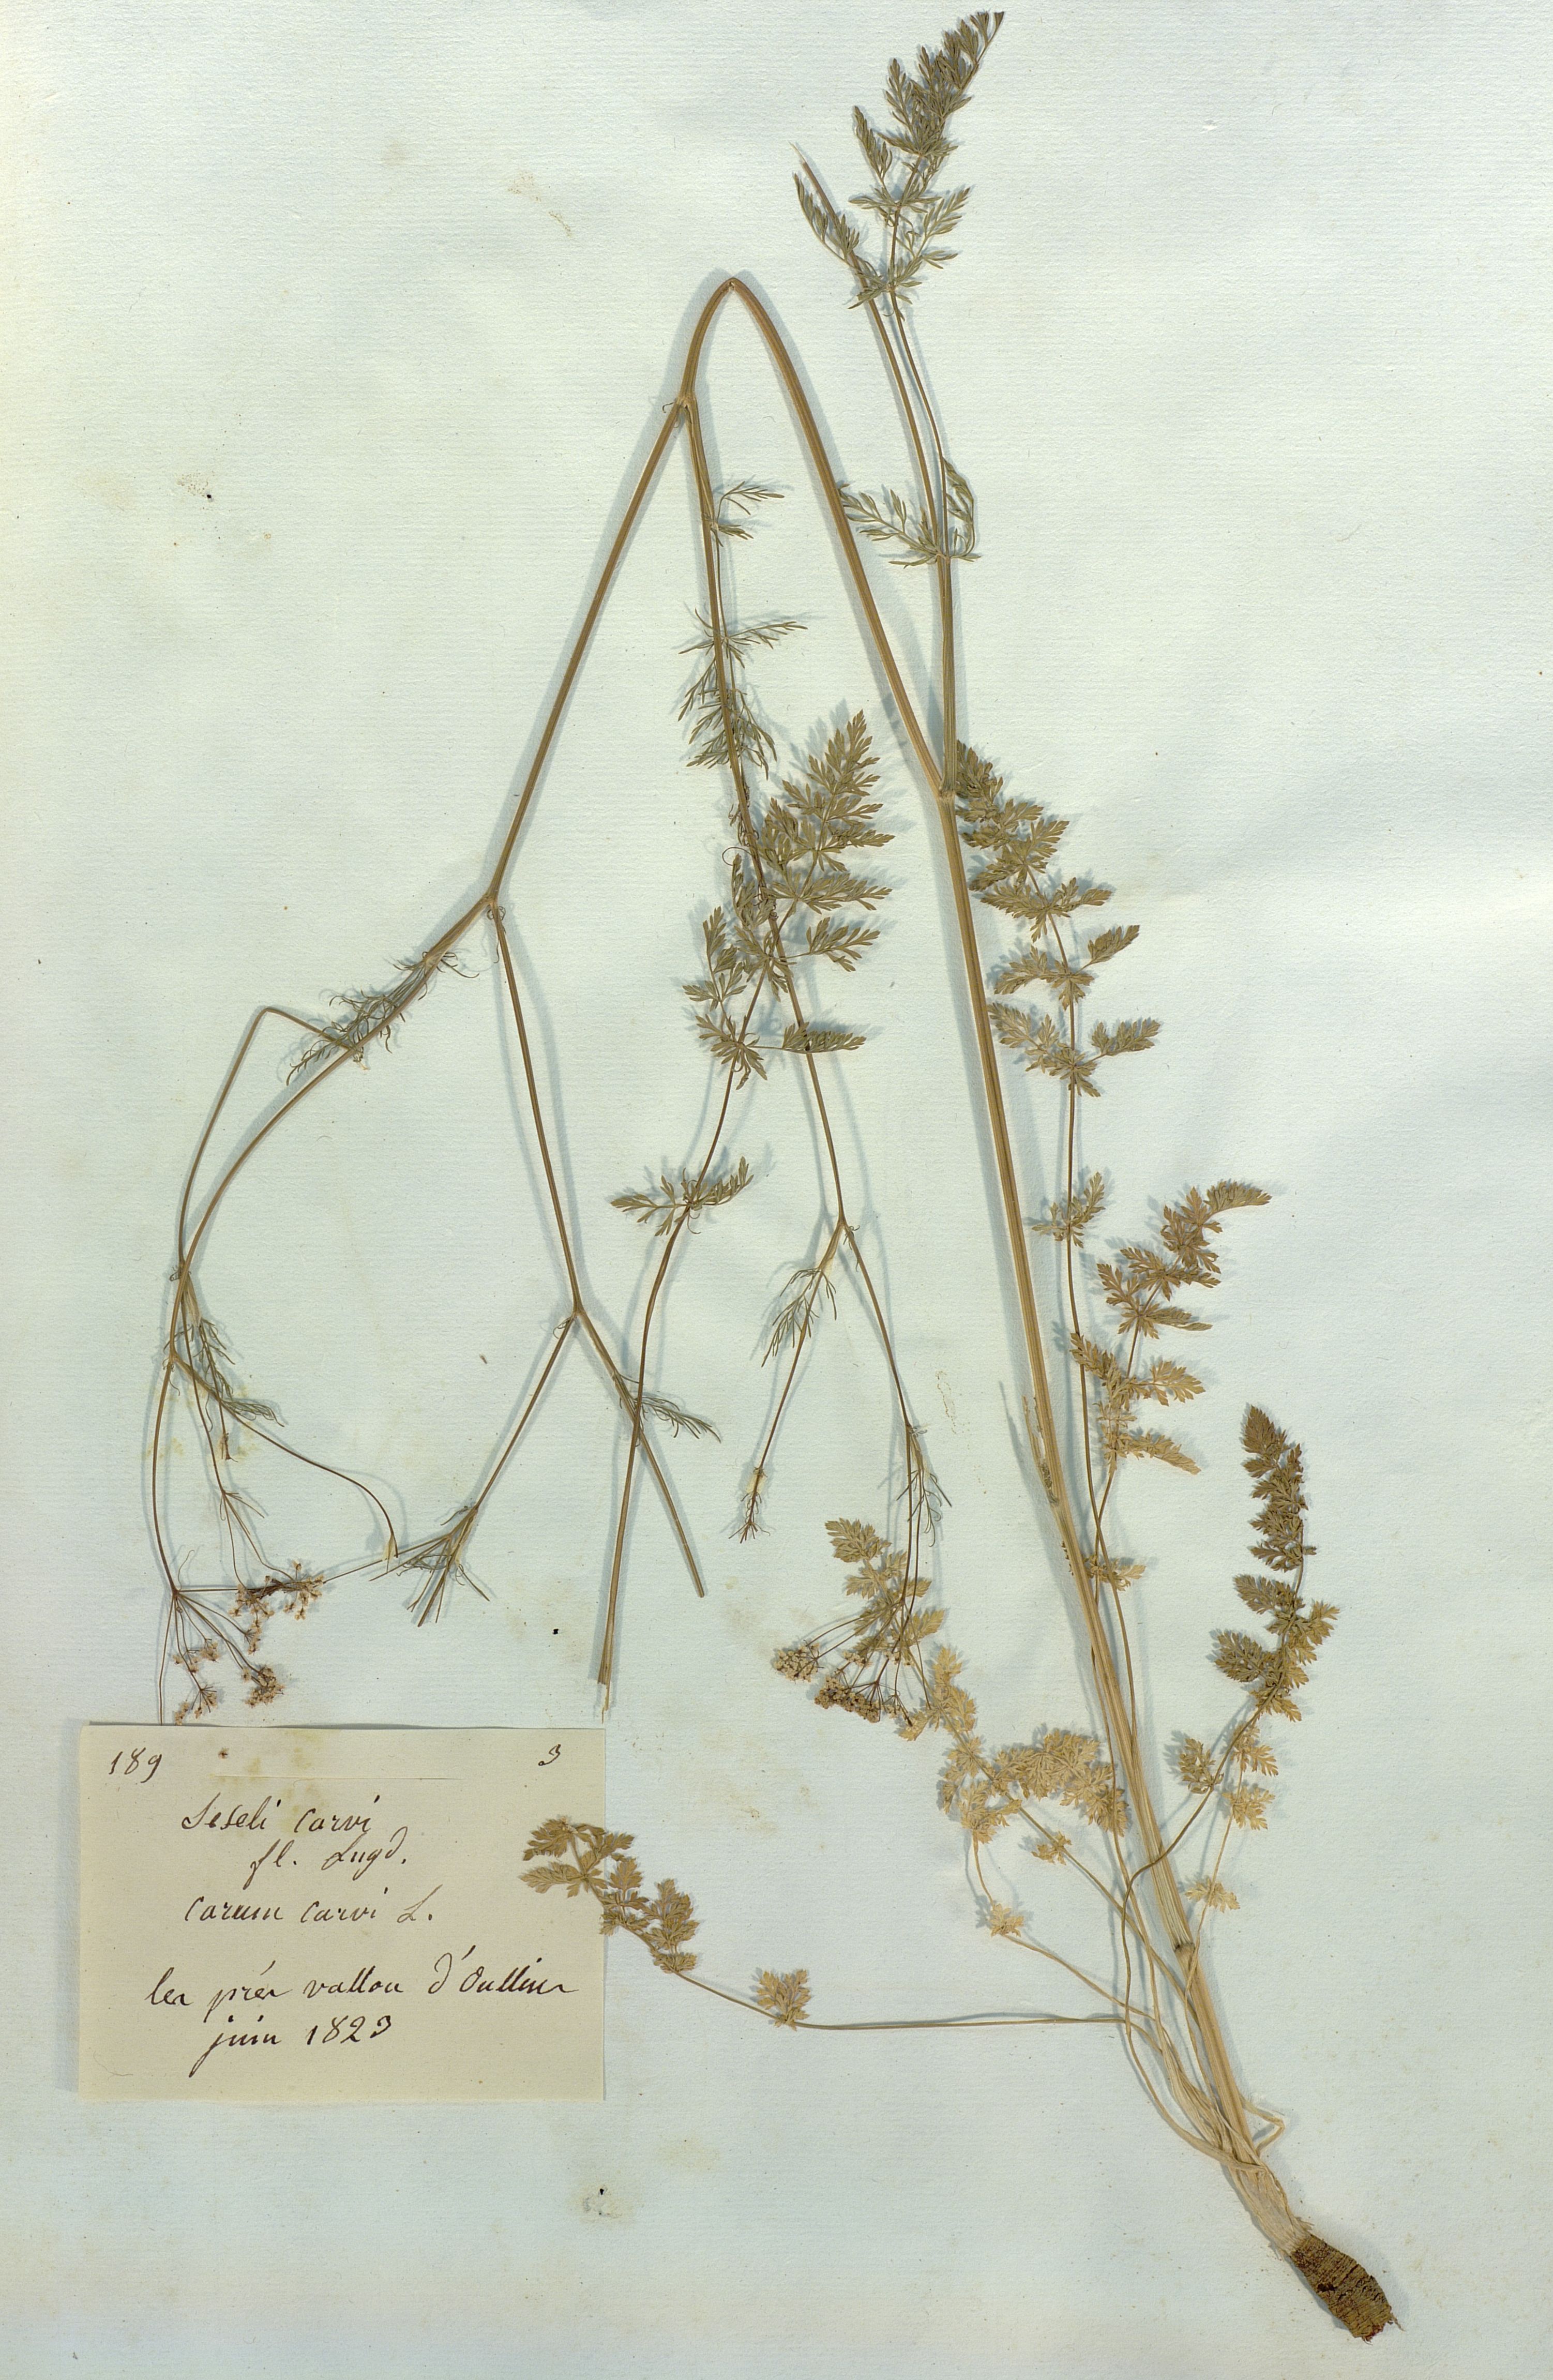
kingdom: Plantae
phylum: Tracheophyta
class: Magnoliopsida
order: Apiales
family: Apiaceae
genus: Seseli
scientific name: Seseli carvi
